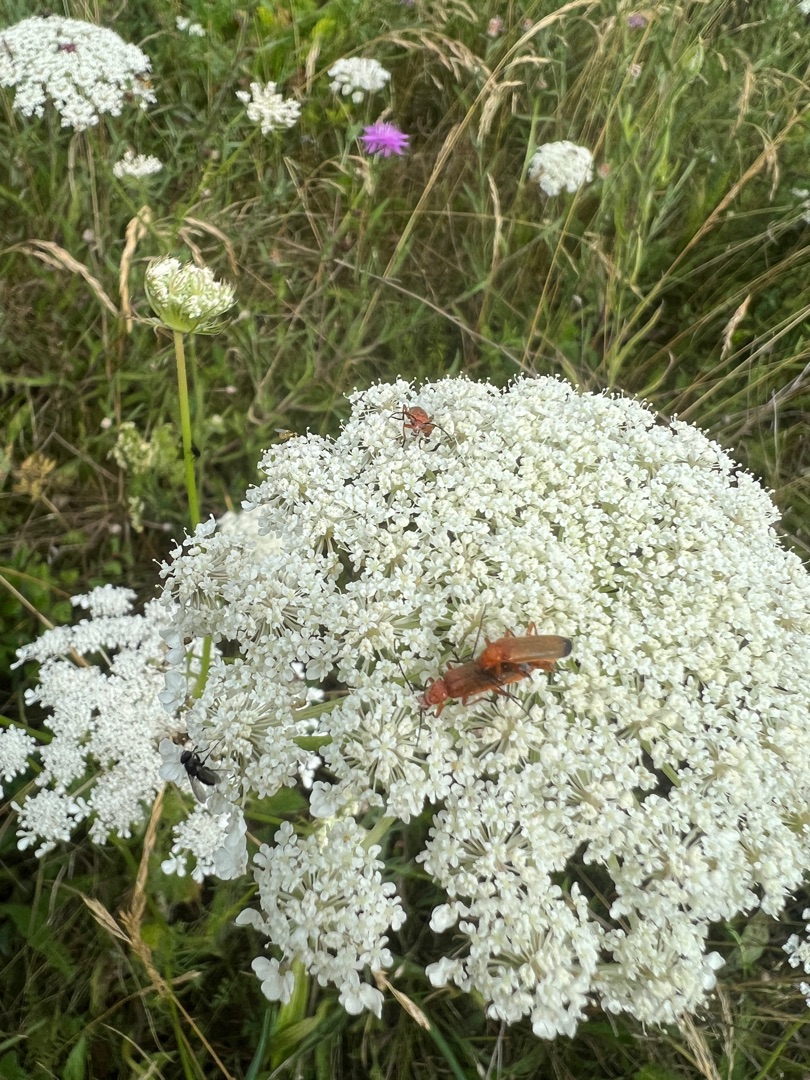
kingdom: Animalia
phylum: Arthropoda
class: Insecta
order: Coleoptera
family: Cantharidae
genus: Rhagonycha
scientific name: Rhagonycha fulva
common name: Præstebille
